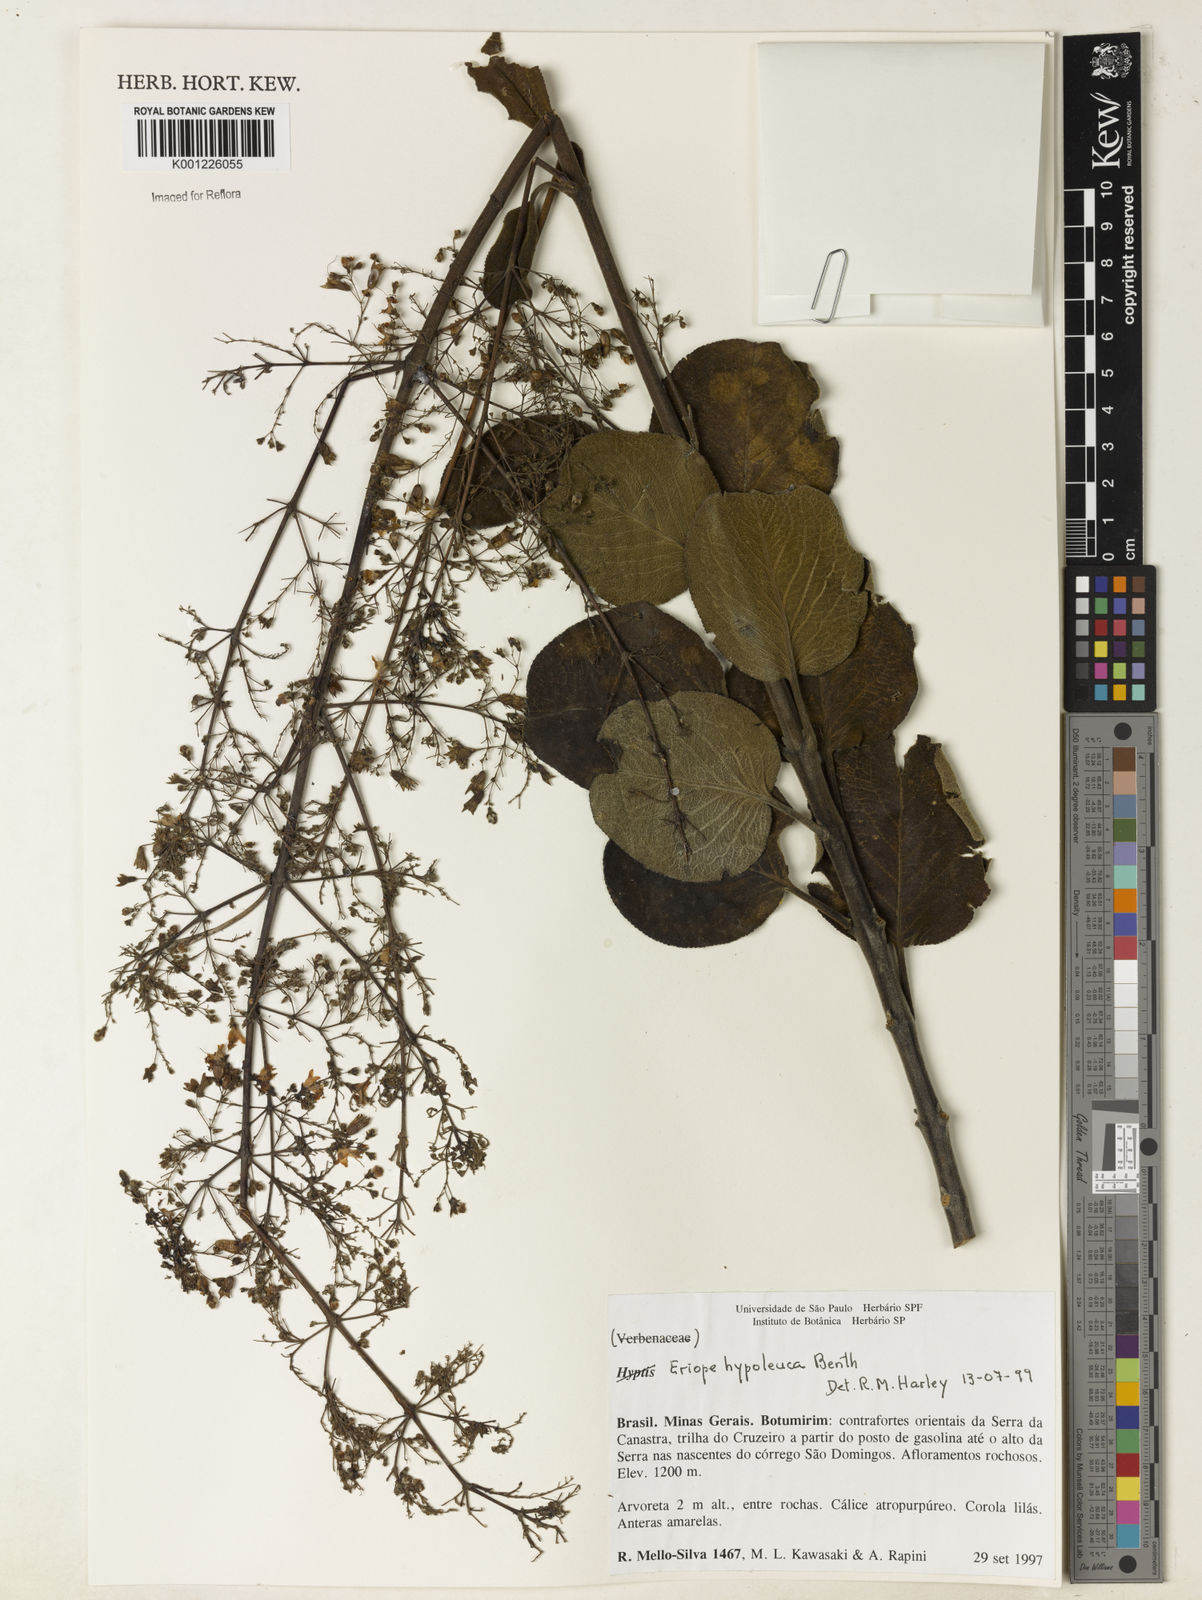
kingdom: Plantae
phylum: Tracheophyta
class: Magnoliopsida
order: Lamiales
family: Lamiaceae
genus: Eriope
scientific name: Eriope hypoleuca
